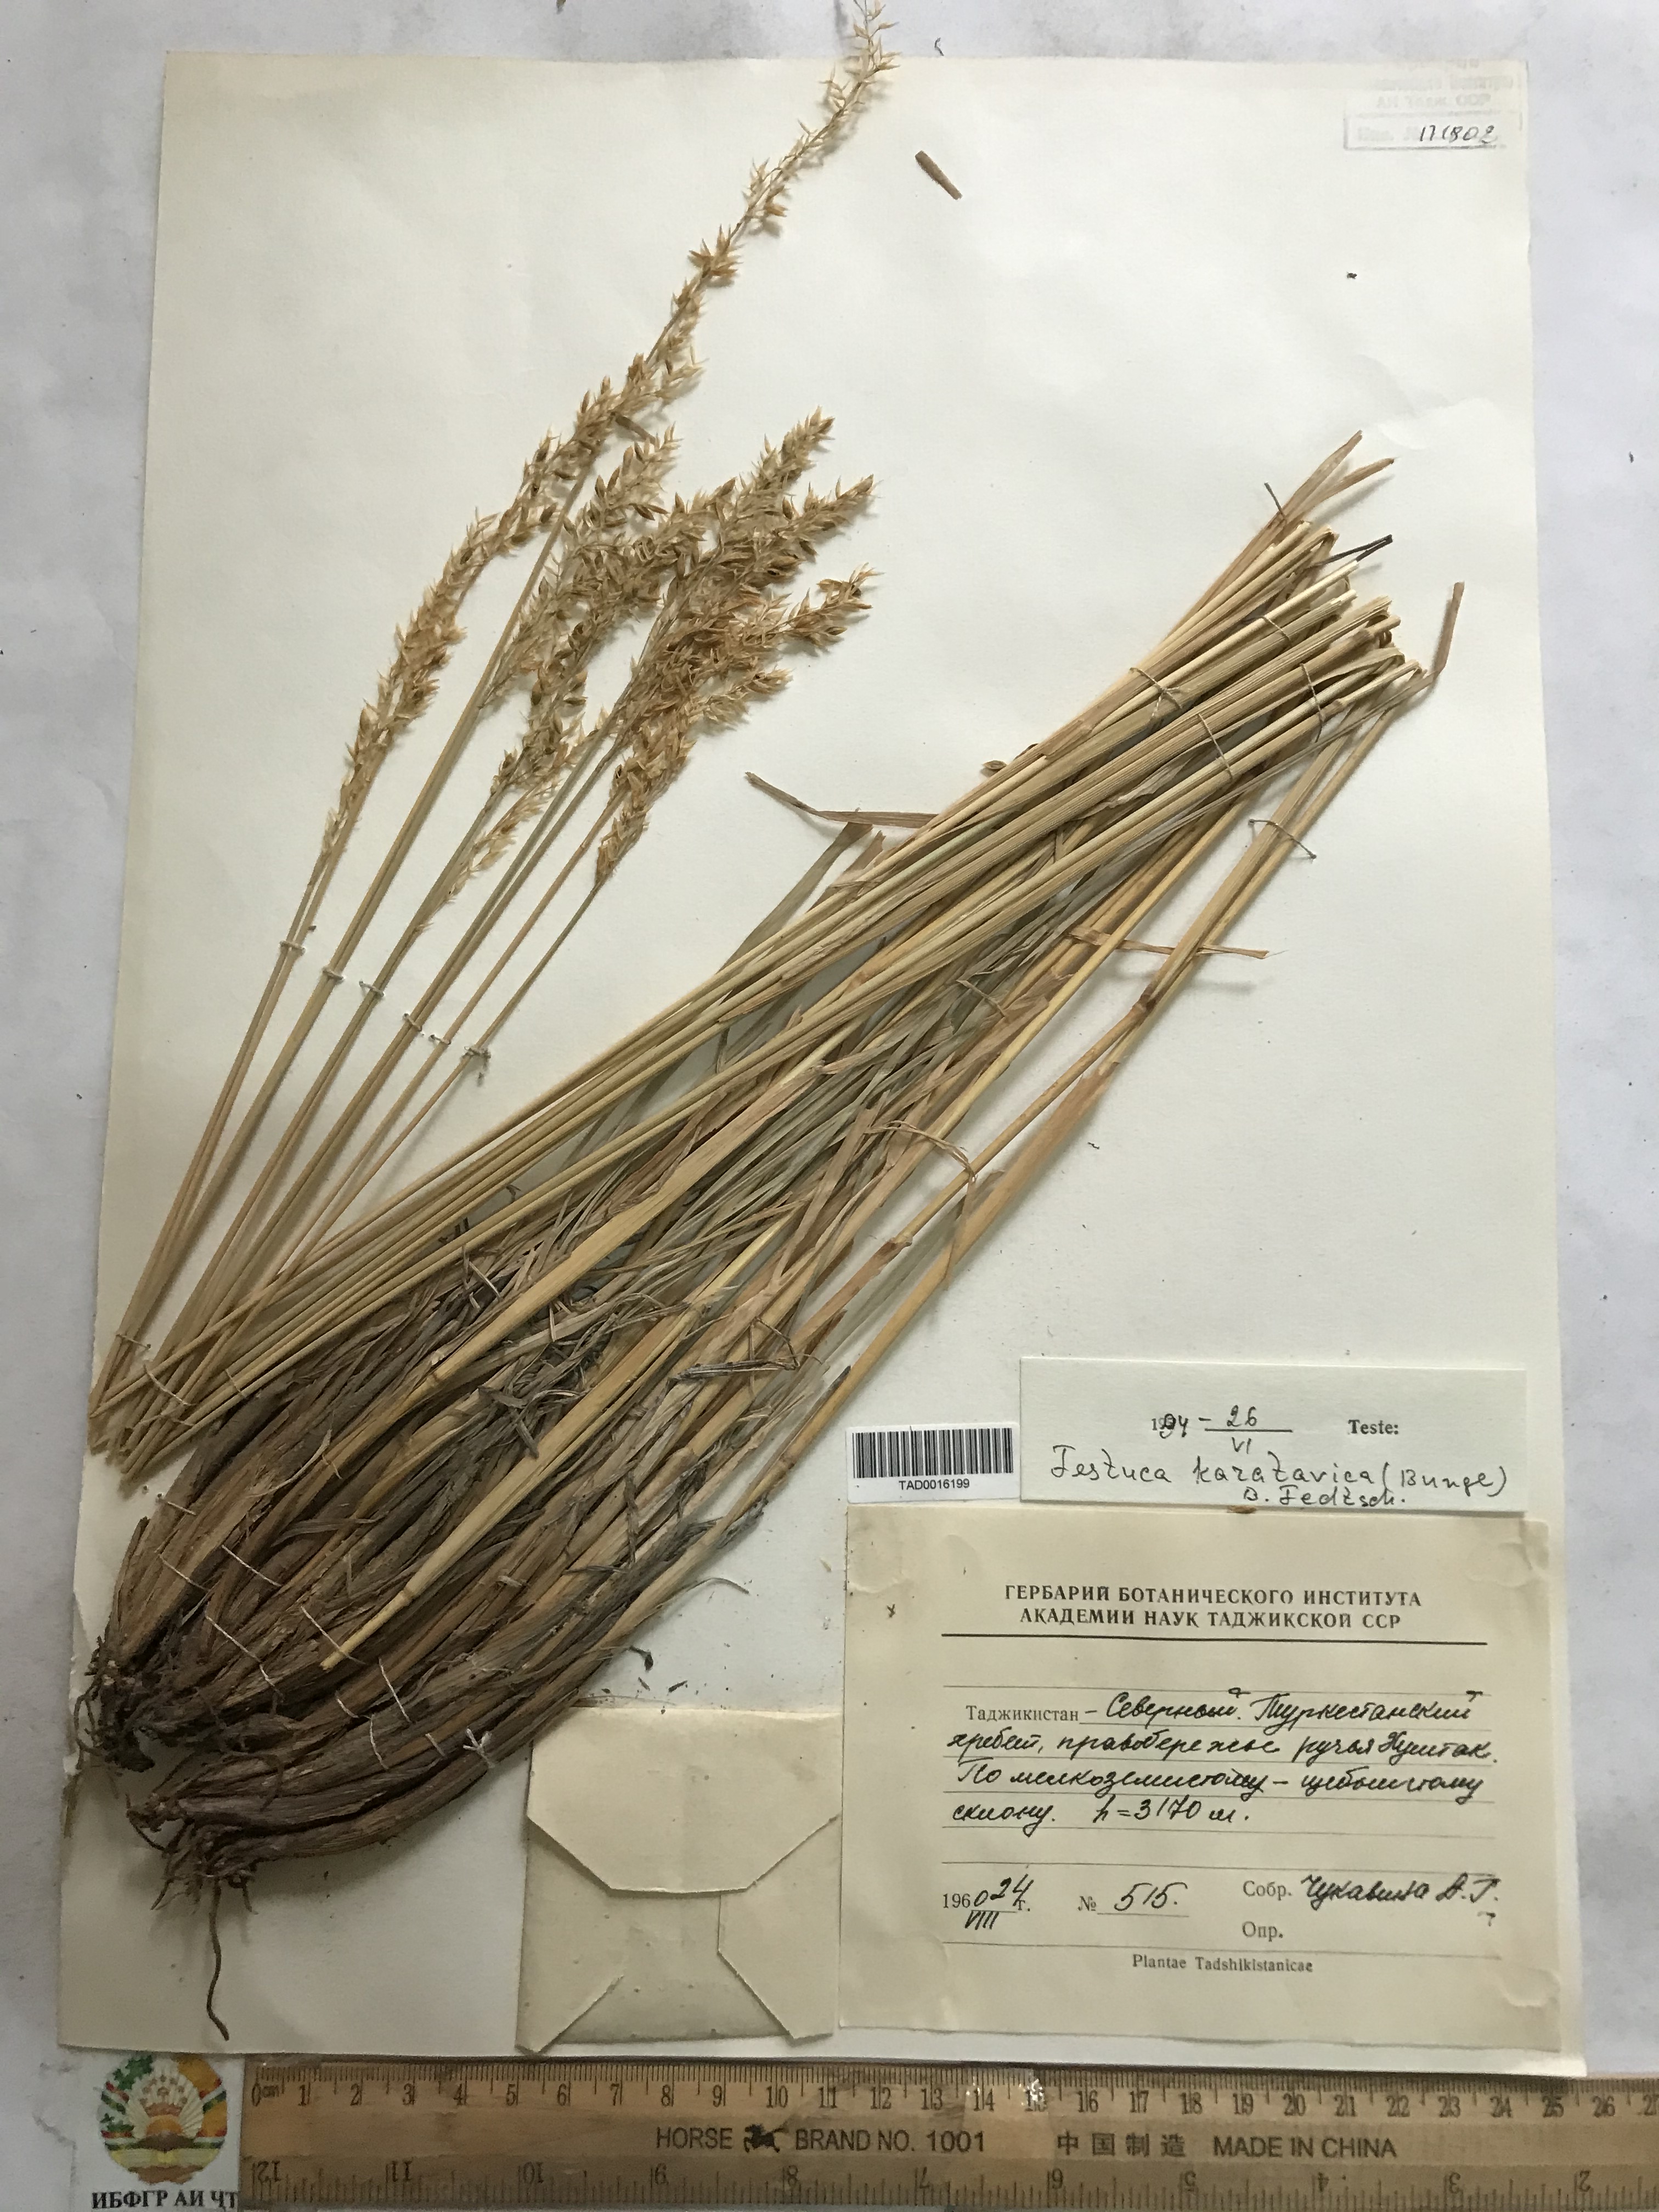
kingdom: Plantae
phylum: Tracheophyta
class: Liliopsida
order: Poales
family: Poaceae
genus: Festuca
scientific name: Festuca karatavica
